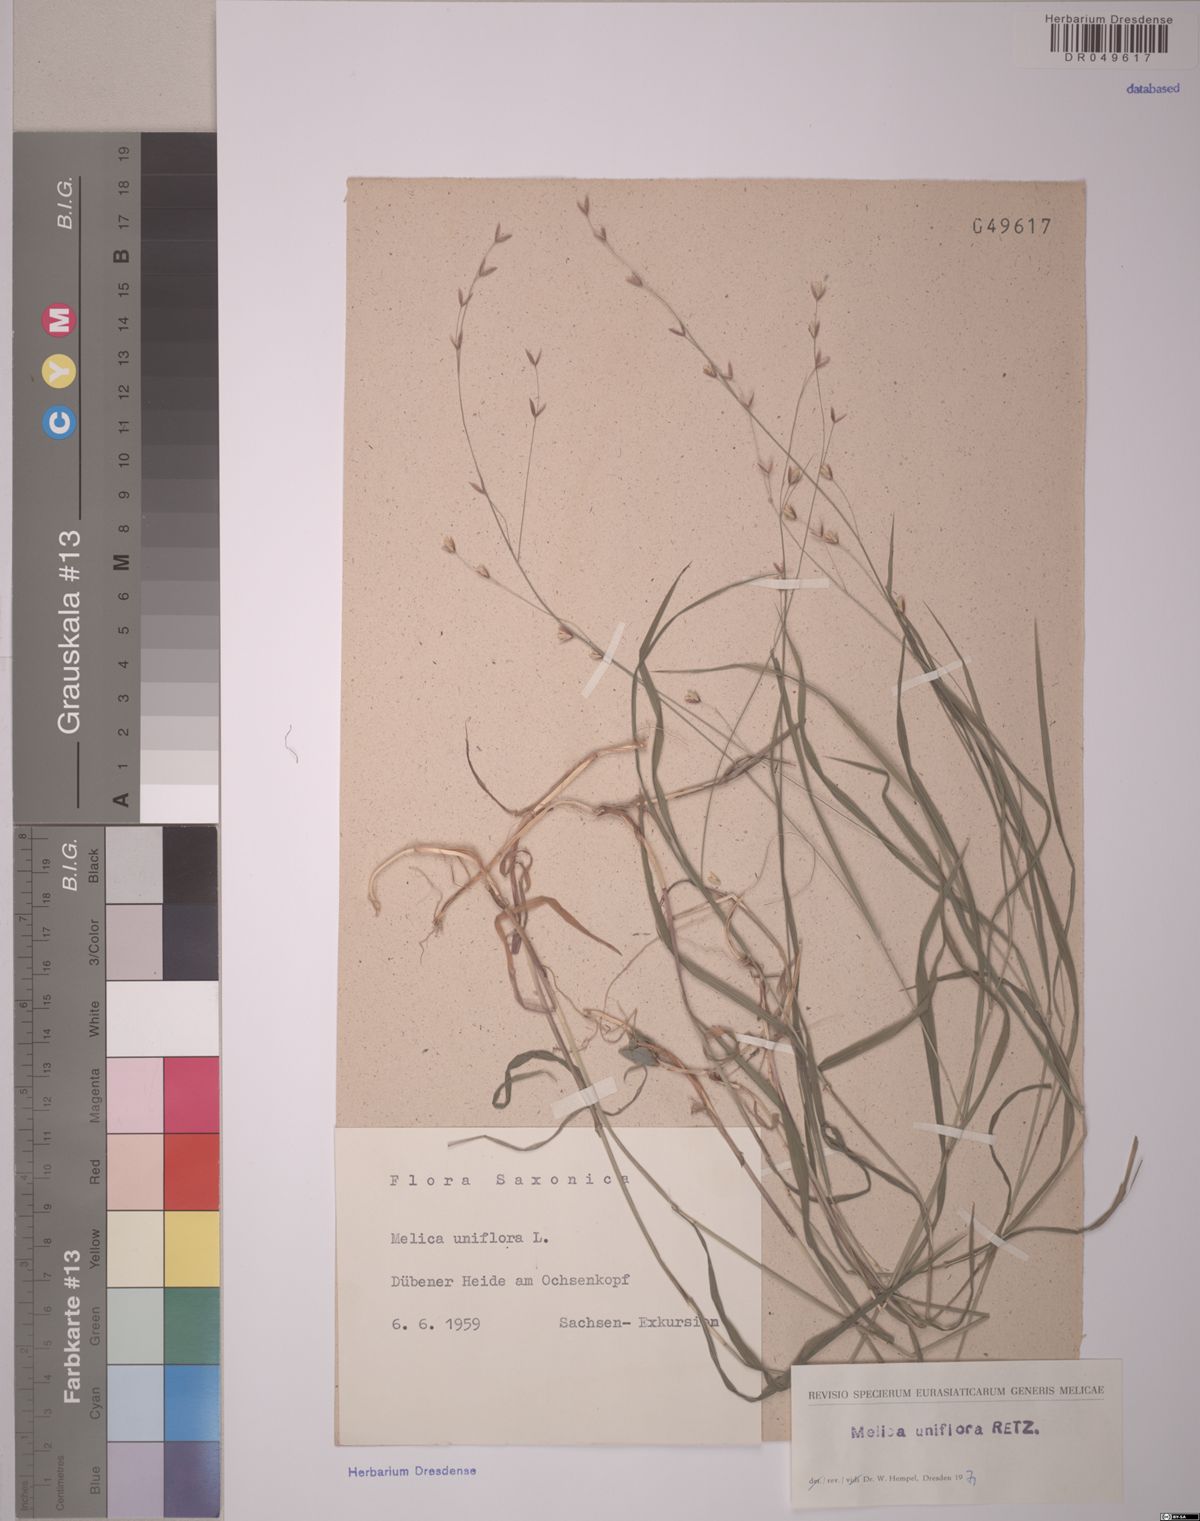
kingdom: Plantae
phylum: Tracheophyta
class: Liliopsida
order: Poales
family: Poaceae
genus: Melica
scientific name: Melica uniflora
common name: Wood melick
